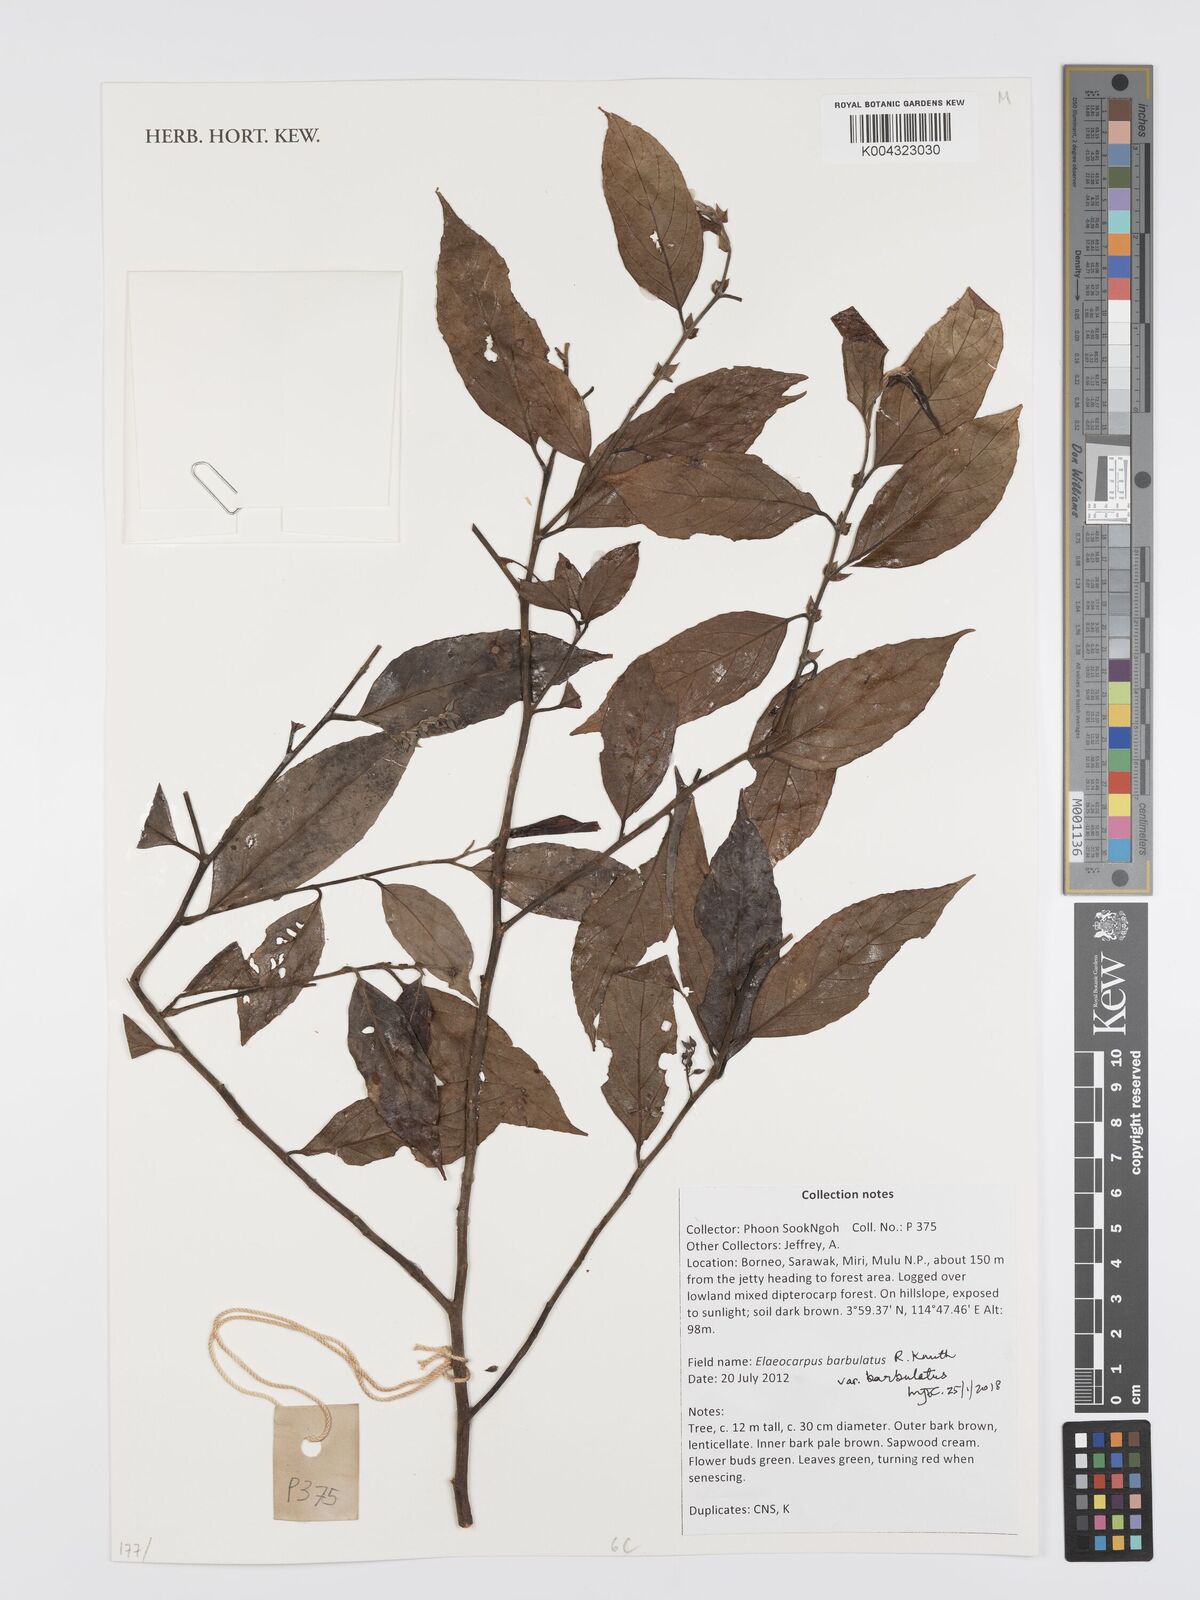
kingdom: Plantae
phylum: Tracheophyta
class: Magnoliopsida
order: Oxalidales
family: Elaeocarpaceae
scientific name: Elaeocarpaceae
